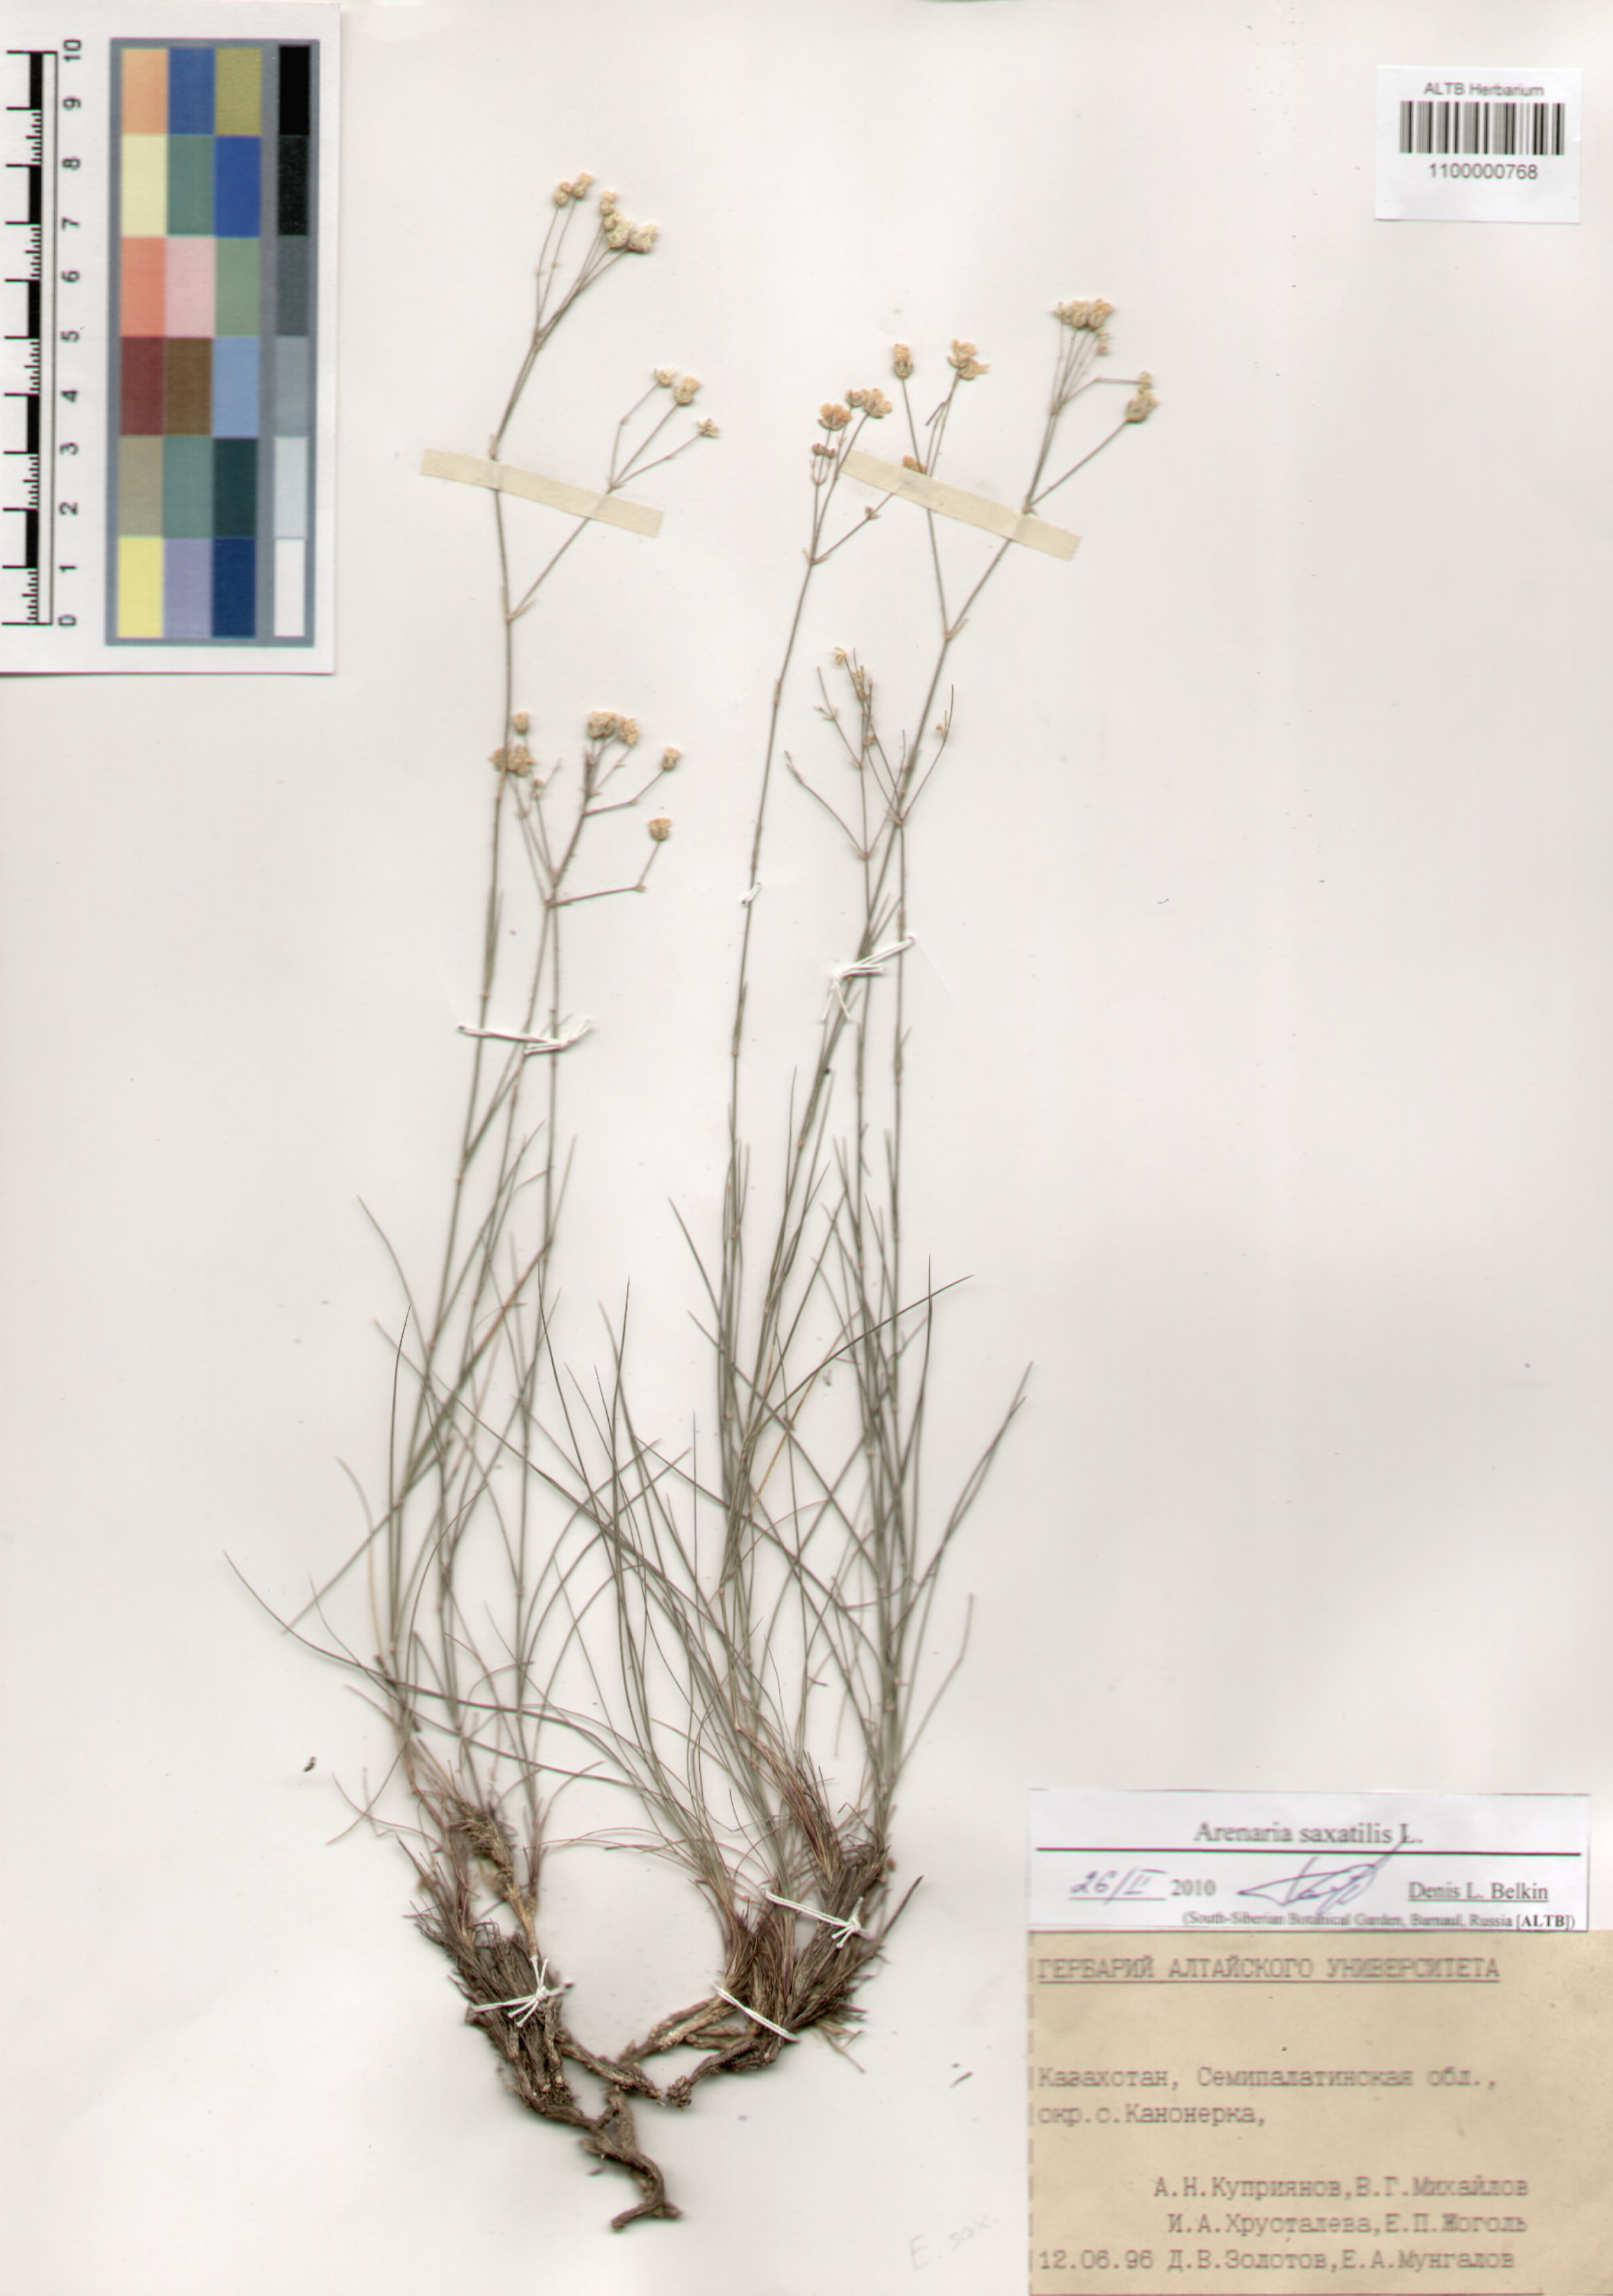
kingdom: Plantae
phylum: Tracheophyta
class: Magnoliopsida
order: Caryophyllales
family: Caryophyllaceae
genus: Eremogone
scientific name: Eremogone saxatilis
